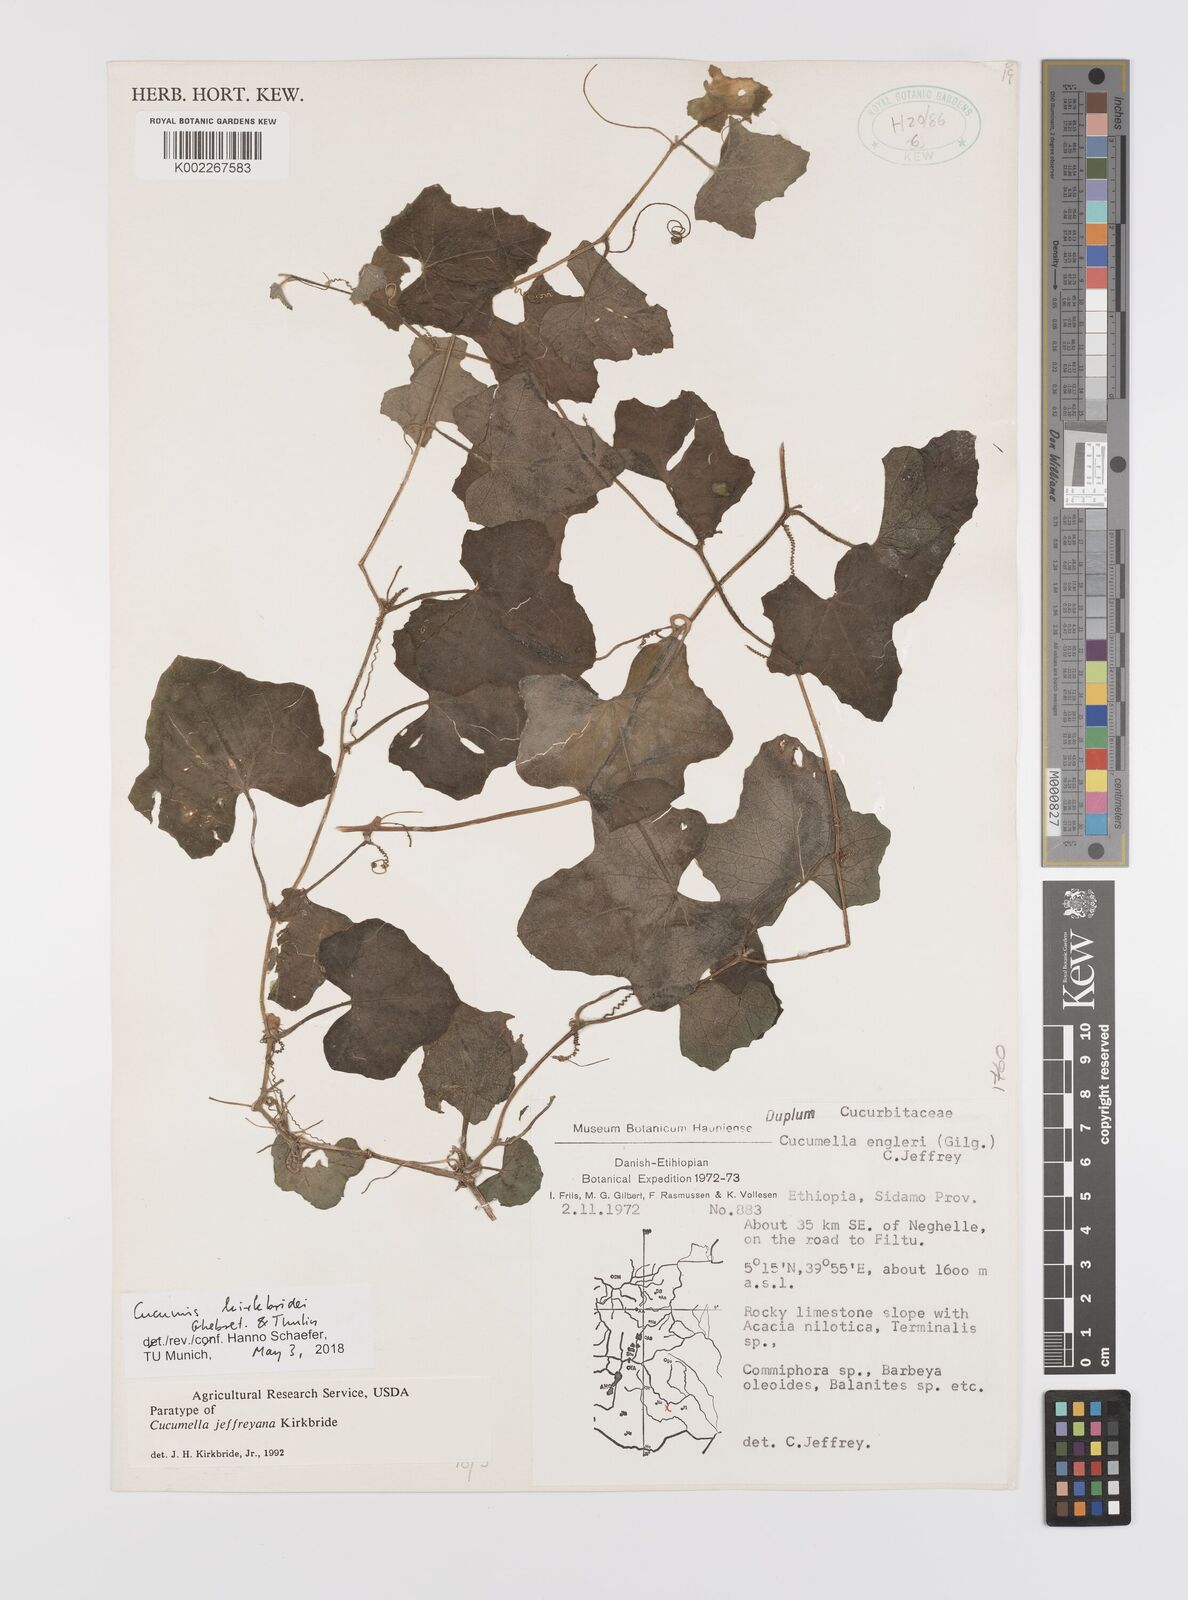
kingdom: Plantae
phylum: Tracheophyta
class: Magnoliopsida
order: Cucurbitales
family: Cucurbitaceae
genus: Cucumis
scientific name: Cucumis kirkbridei
